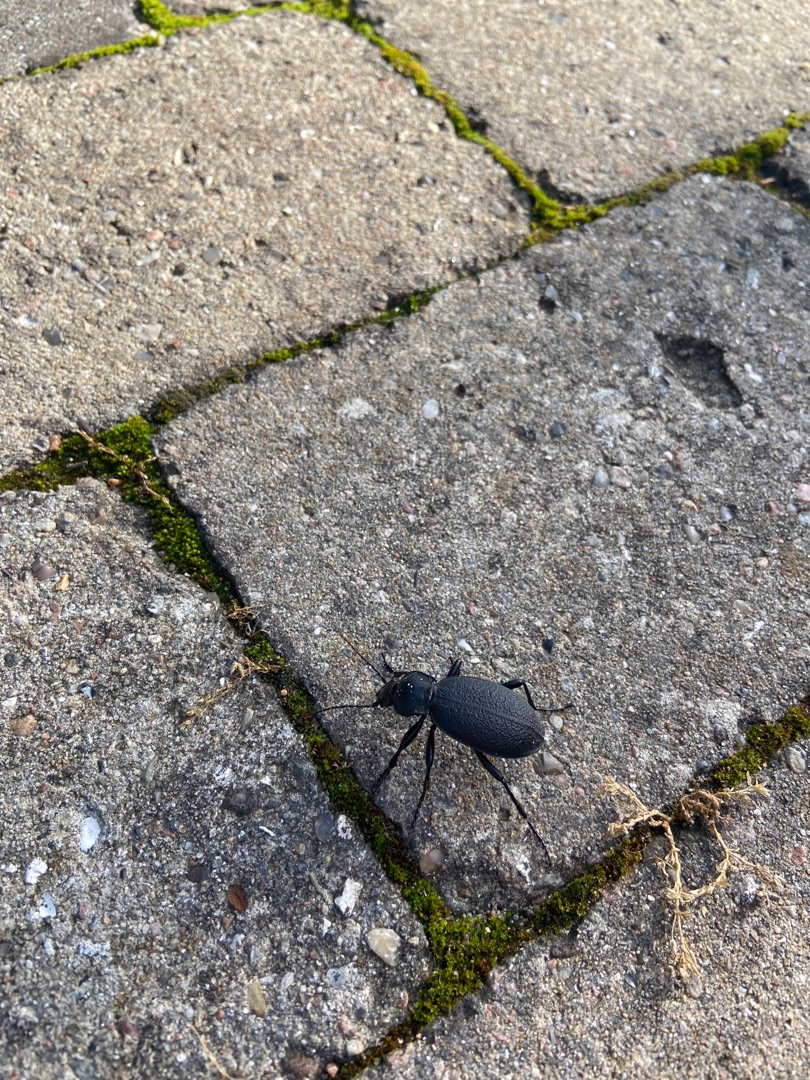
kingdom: Animalia
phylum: Arthropoda
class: Insecta
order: Coleoptera
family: Carabidae
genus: Carabus
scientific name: Carabus coriaceus
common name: Læderløber
